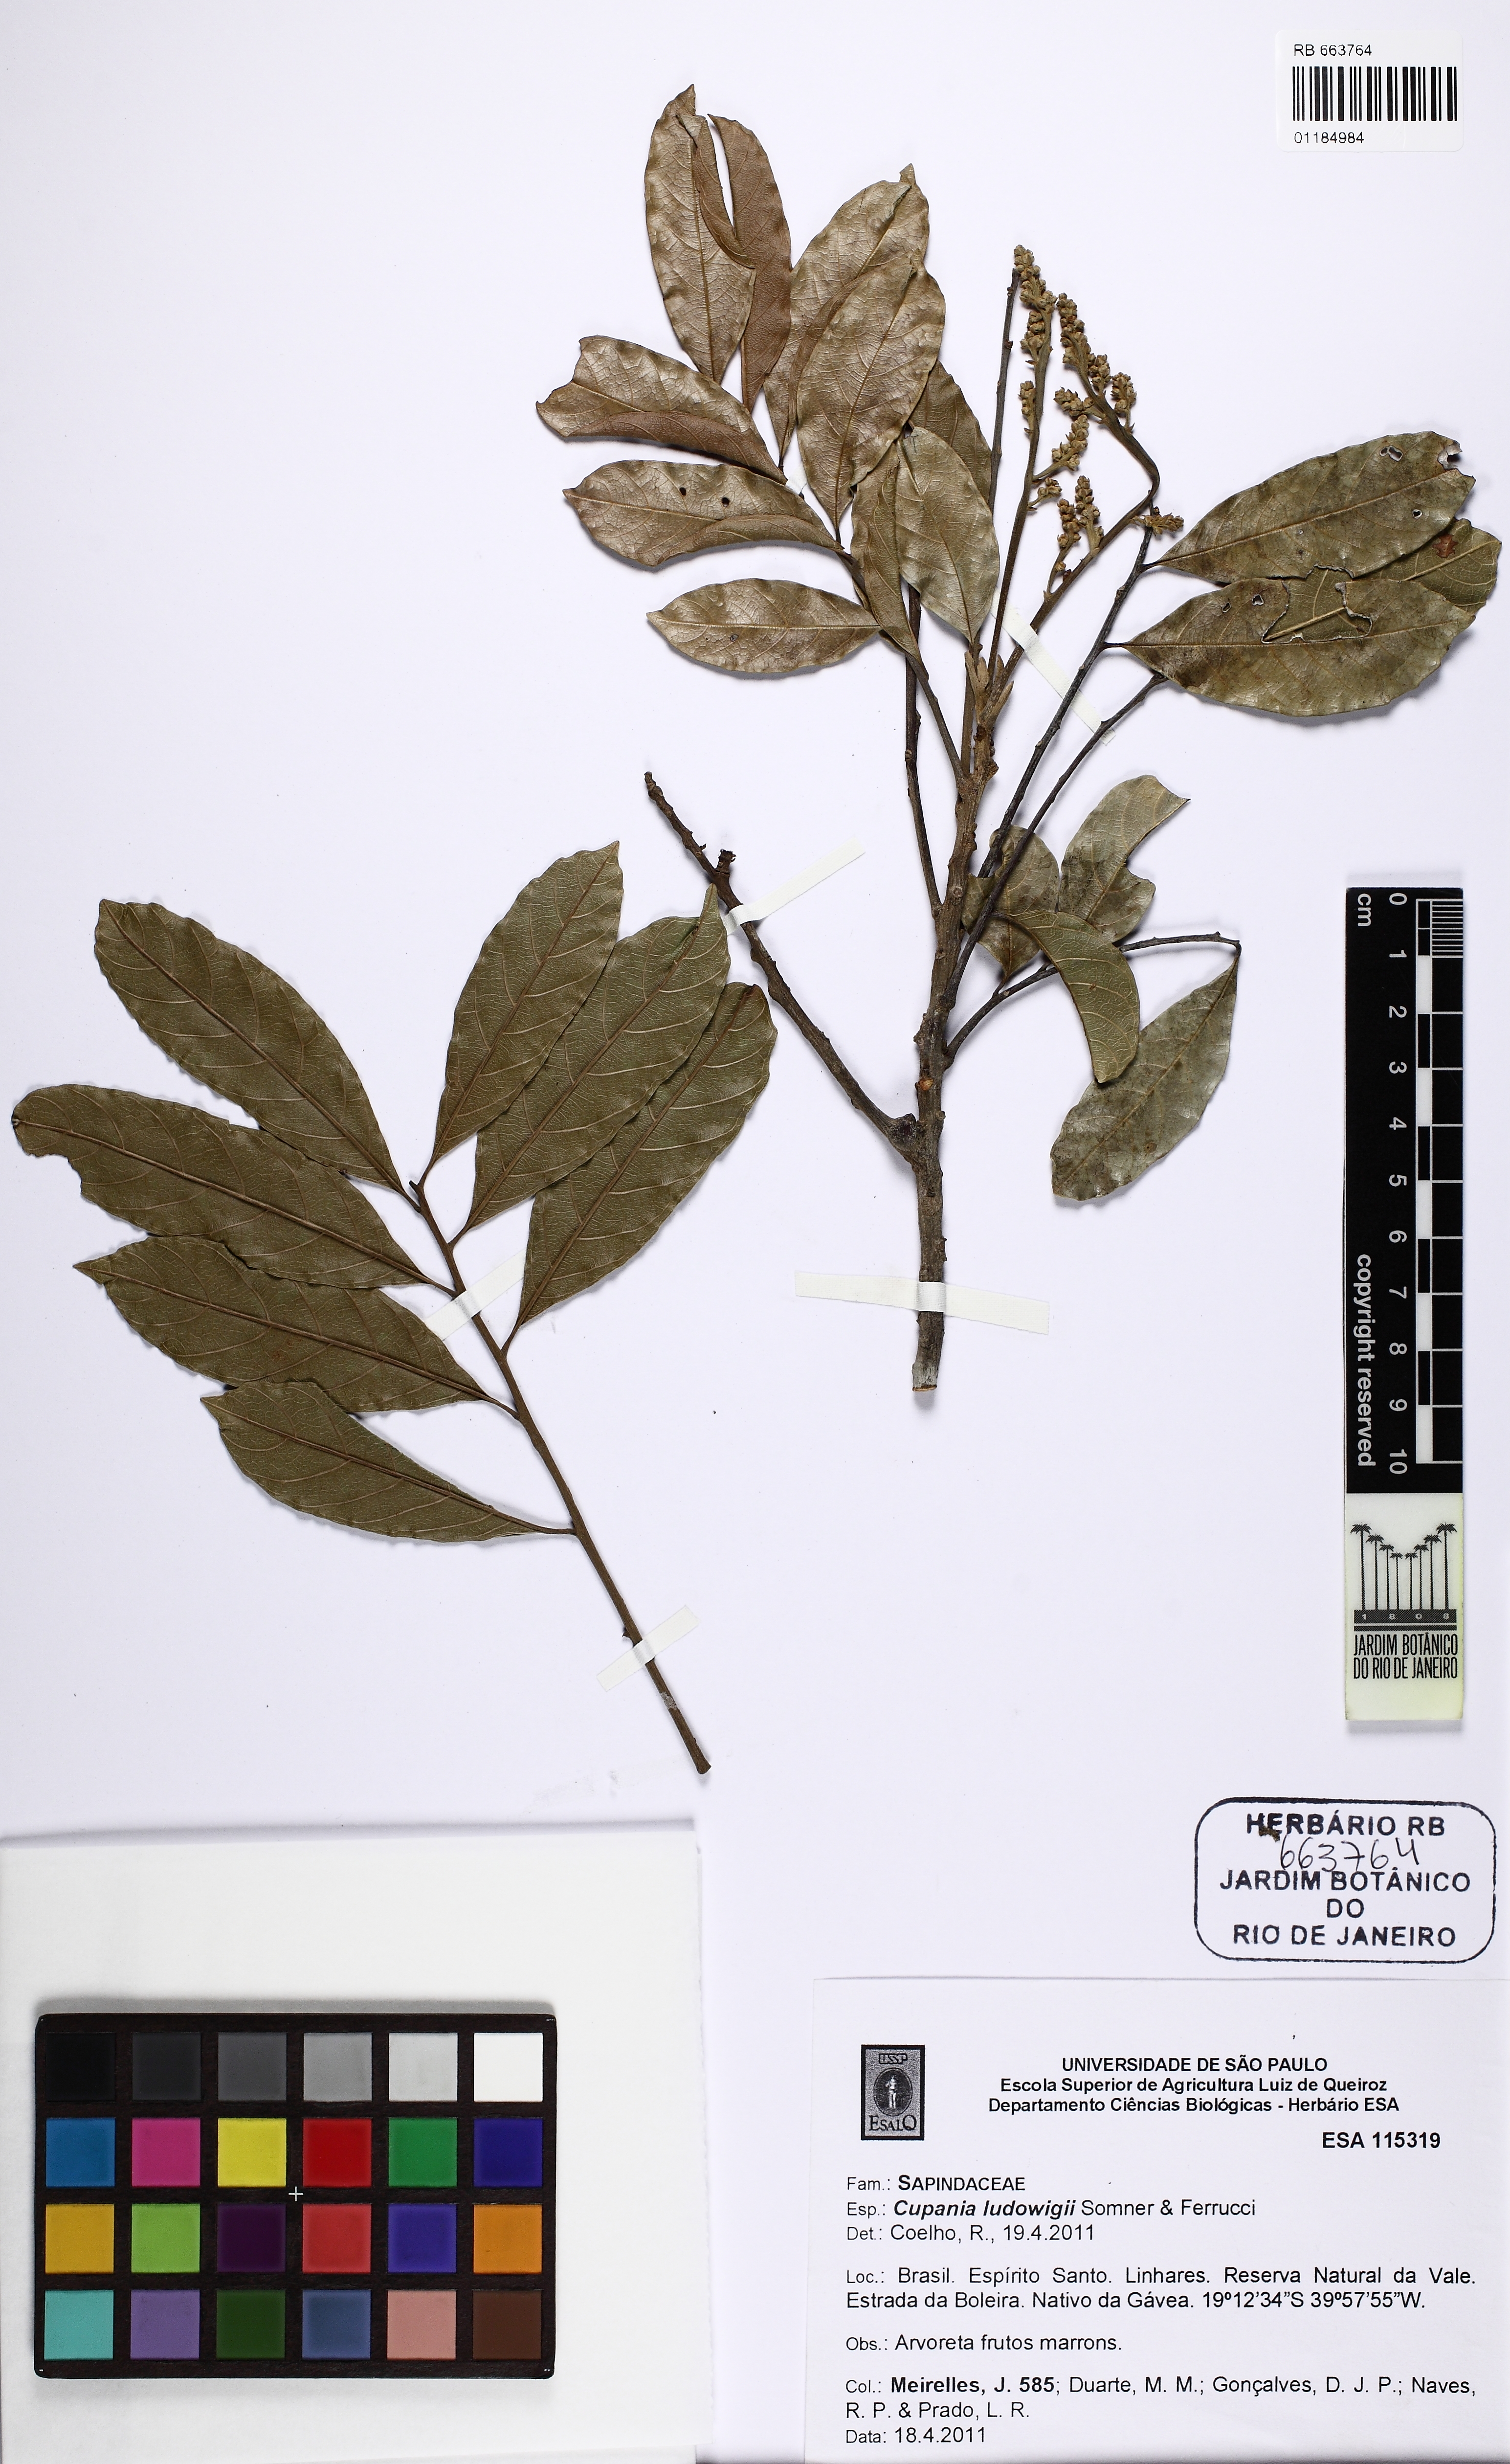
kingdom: Plantae
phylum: Tracheophyta
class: Magnoliopsida
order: Sapindales
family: Sapindaceae
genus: Cupania
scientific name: Cupania ludowigii
